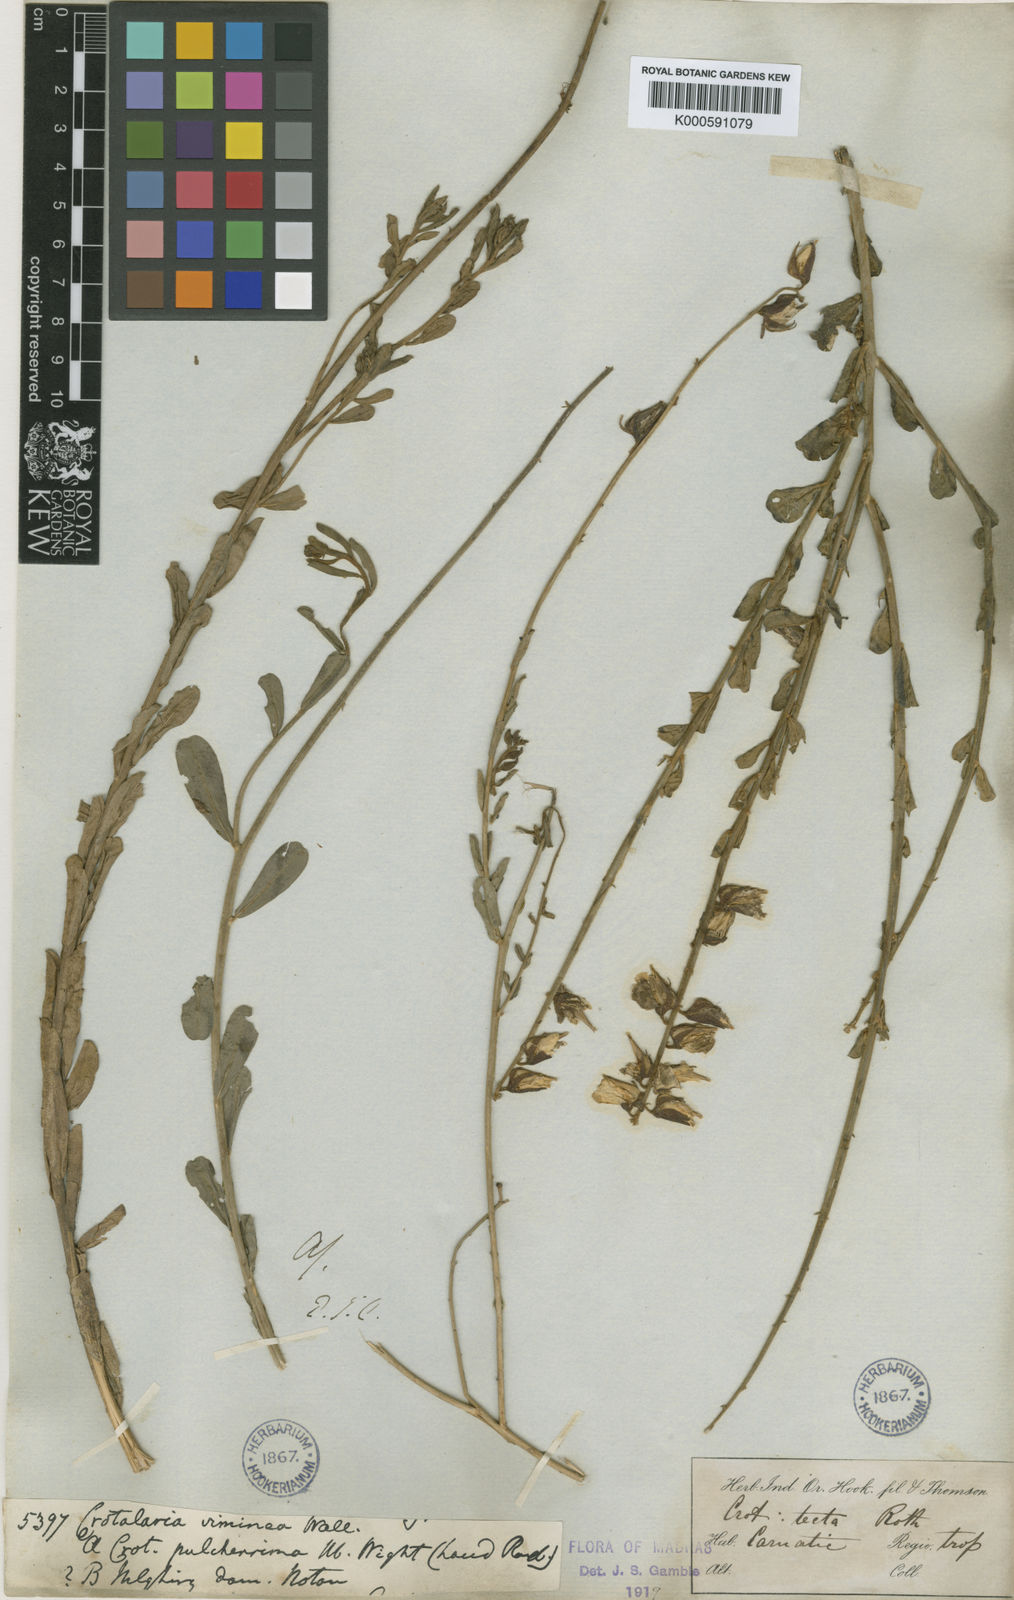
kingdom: Plantae
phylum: Tracheophyta
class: Magnoliopsida
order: Fabales
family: Fabaceae
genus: Crotalaria
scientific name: Crotalaria linifolia
